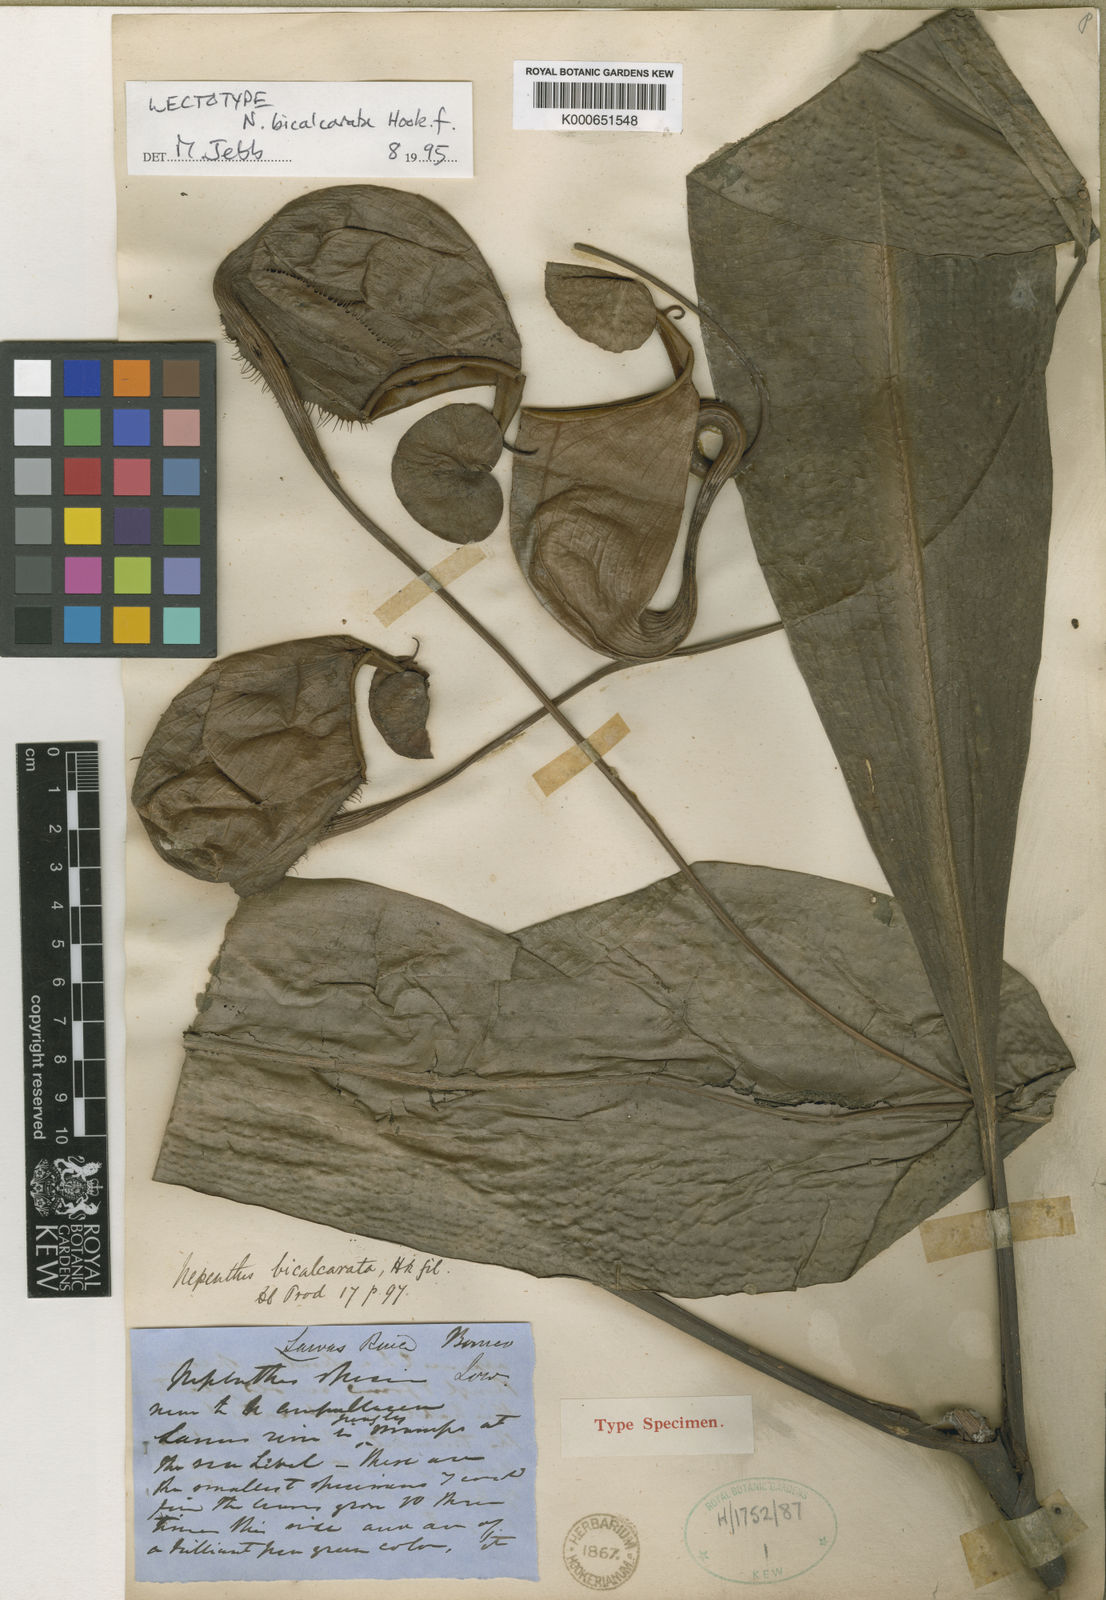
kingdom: Plantae
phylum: Tracheophyta
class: Magnoliopsida
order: Caryophyllales
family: Nepenthaceae
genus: Nepenthes
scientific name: Nepenthes bicalcarata
